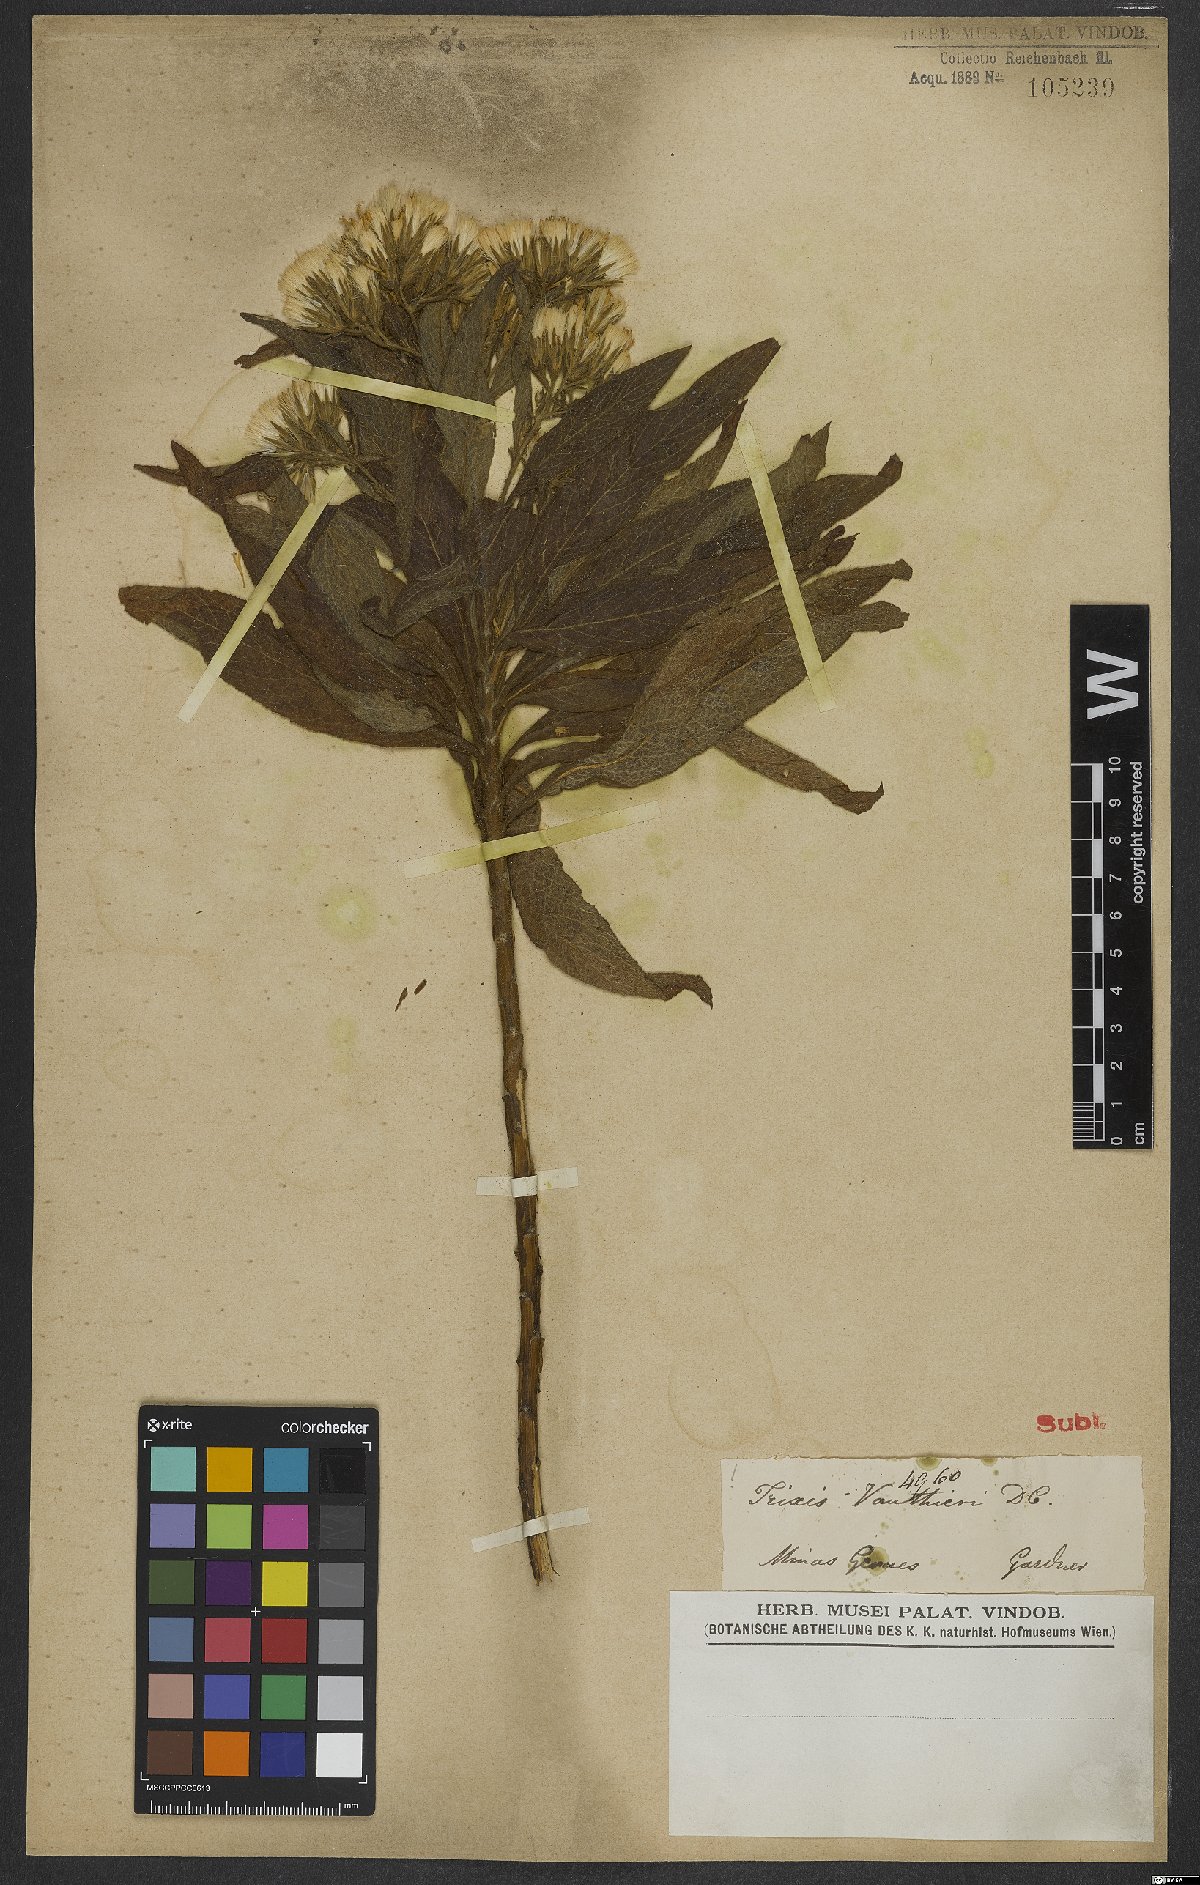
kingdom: Plantae
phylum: Tracheophyta
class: Magnoliopsida
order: Asterales
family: Asteraceae
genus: Trixis
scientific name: Trixis vauthieri
